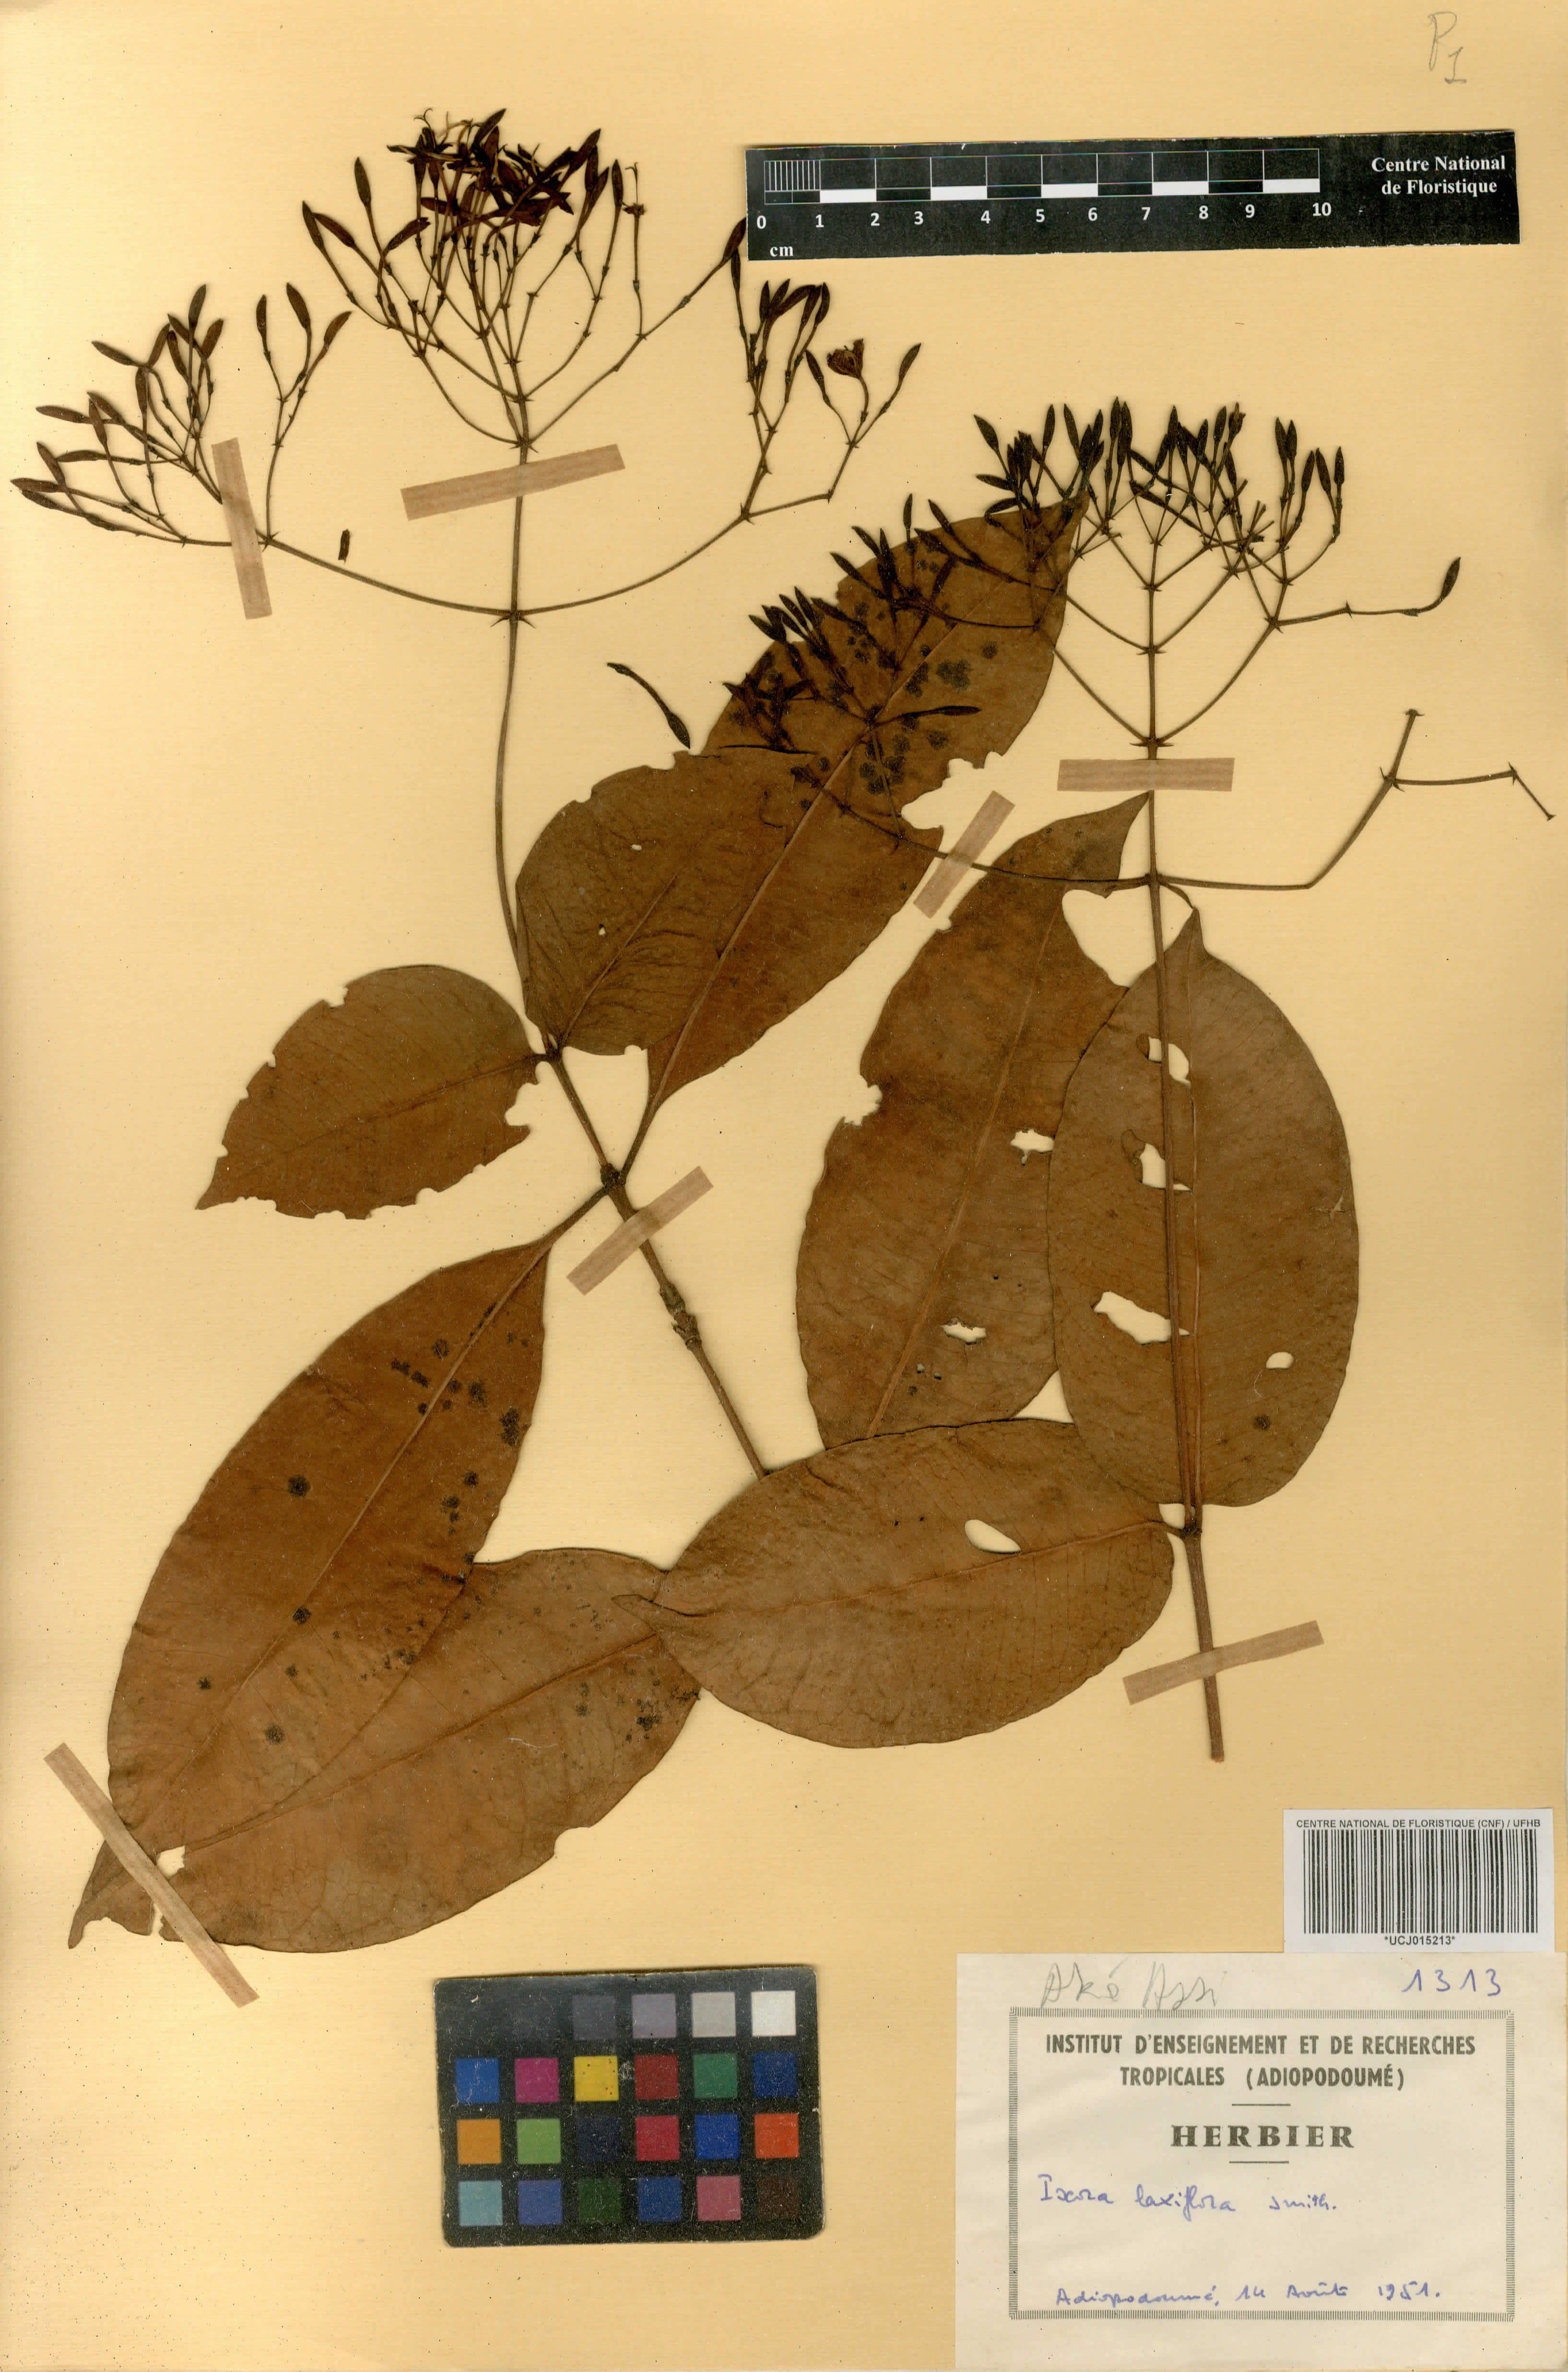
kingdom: Plantae
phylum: Tracheophyta
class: Magnoliopsida
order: Gentianales
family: Rubiaceae
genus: Ixora
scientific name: Ixora laxiflora
